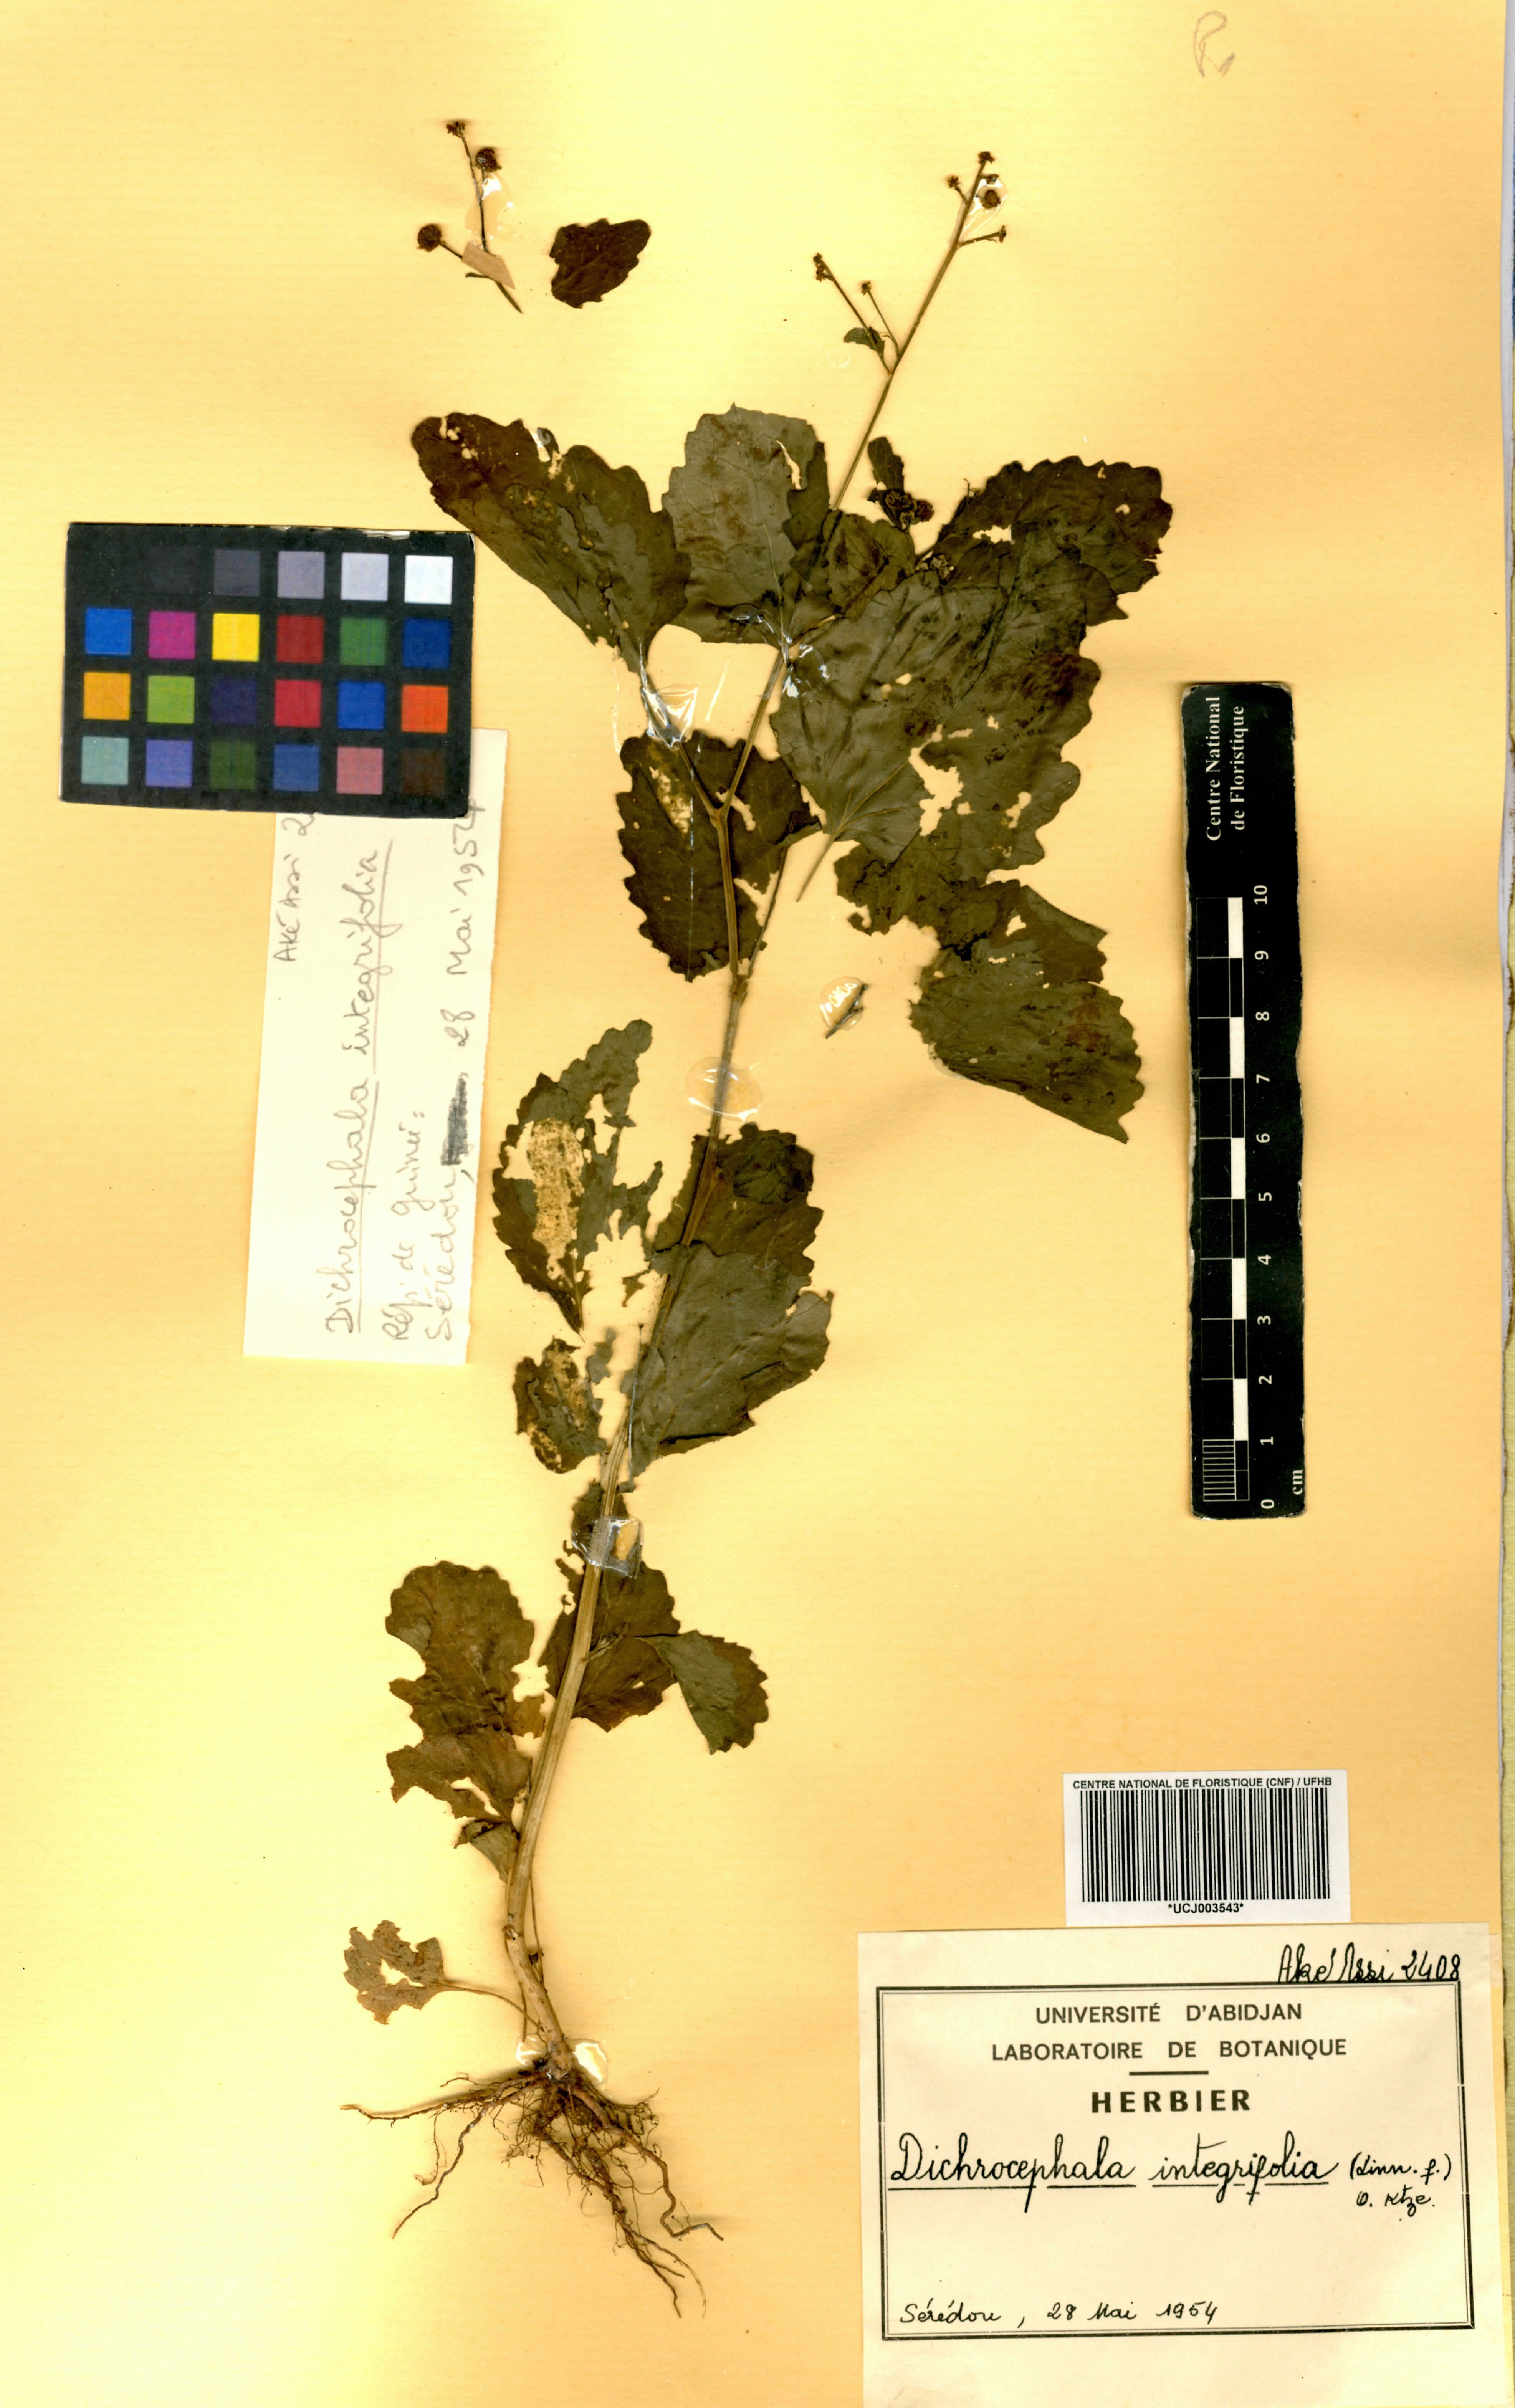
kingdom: Plantae
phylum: Tracheophyta
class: Magnoliopsida
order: Asterales
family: Asteraceae
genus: Dichrocephala
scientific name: Dichrocephala integrifolia
